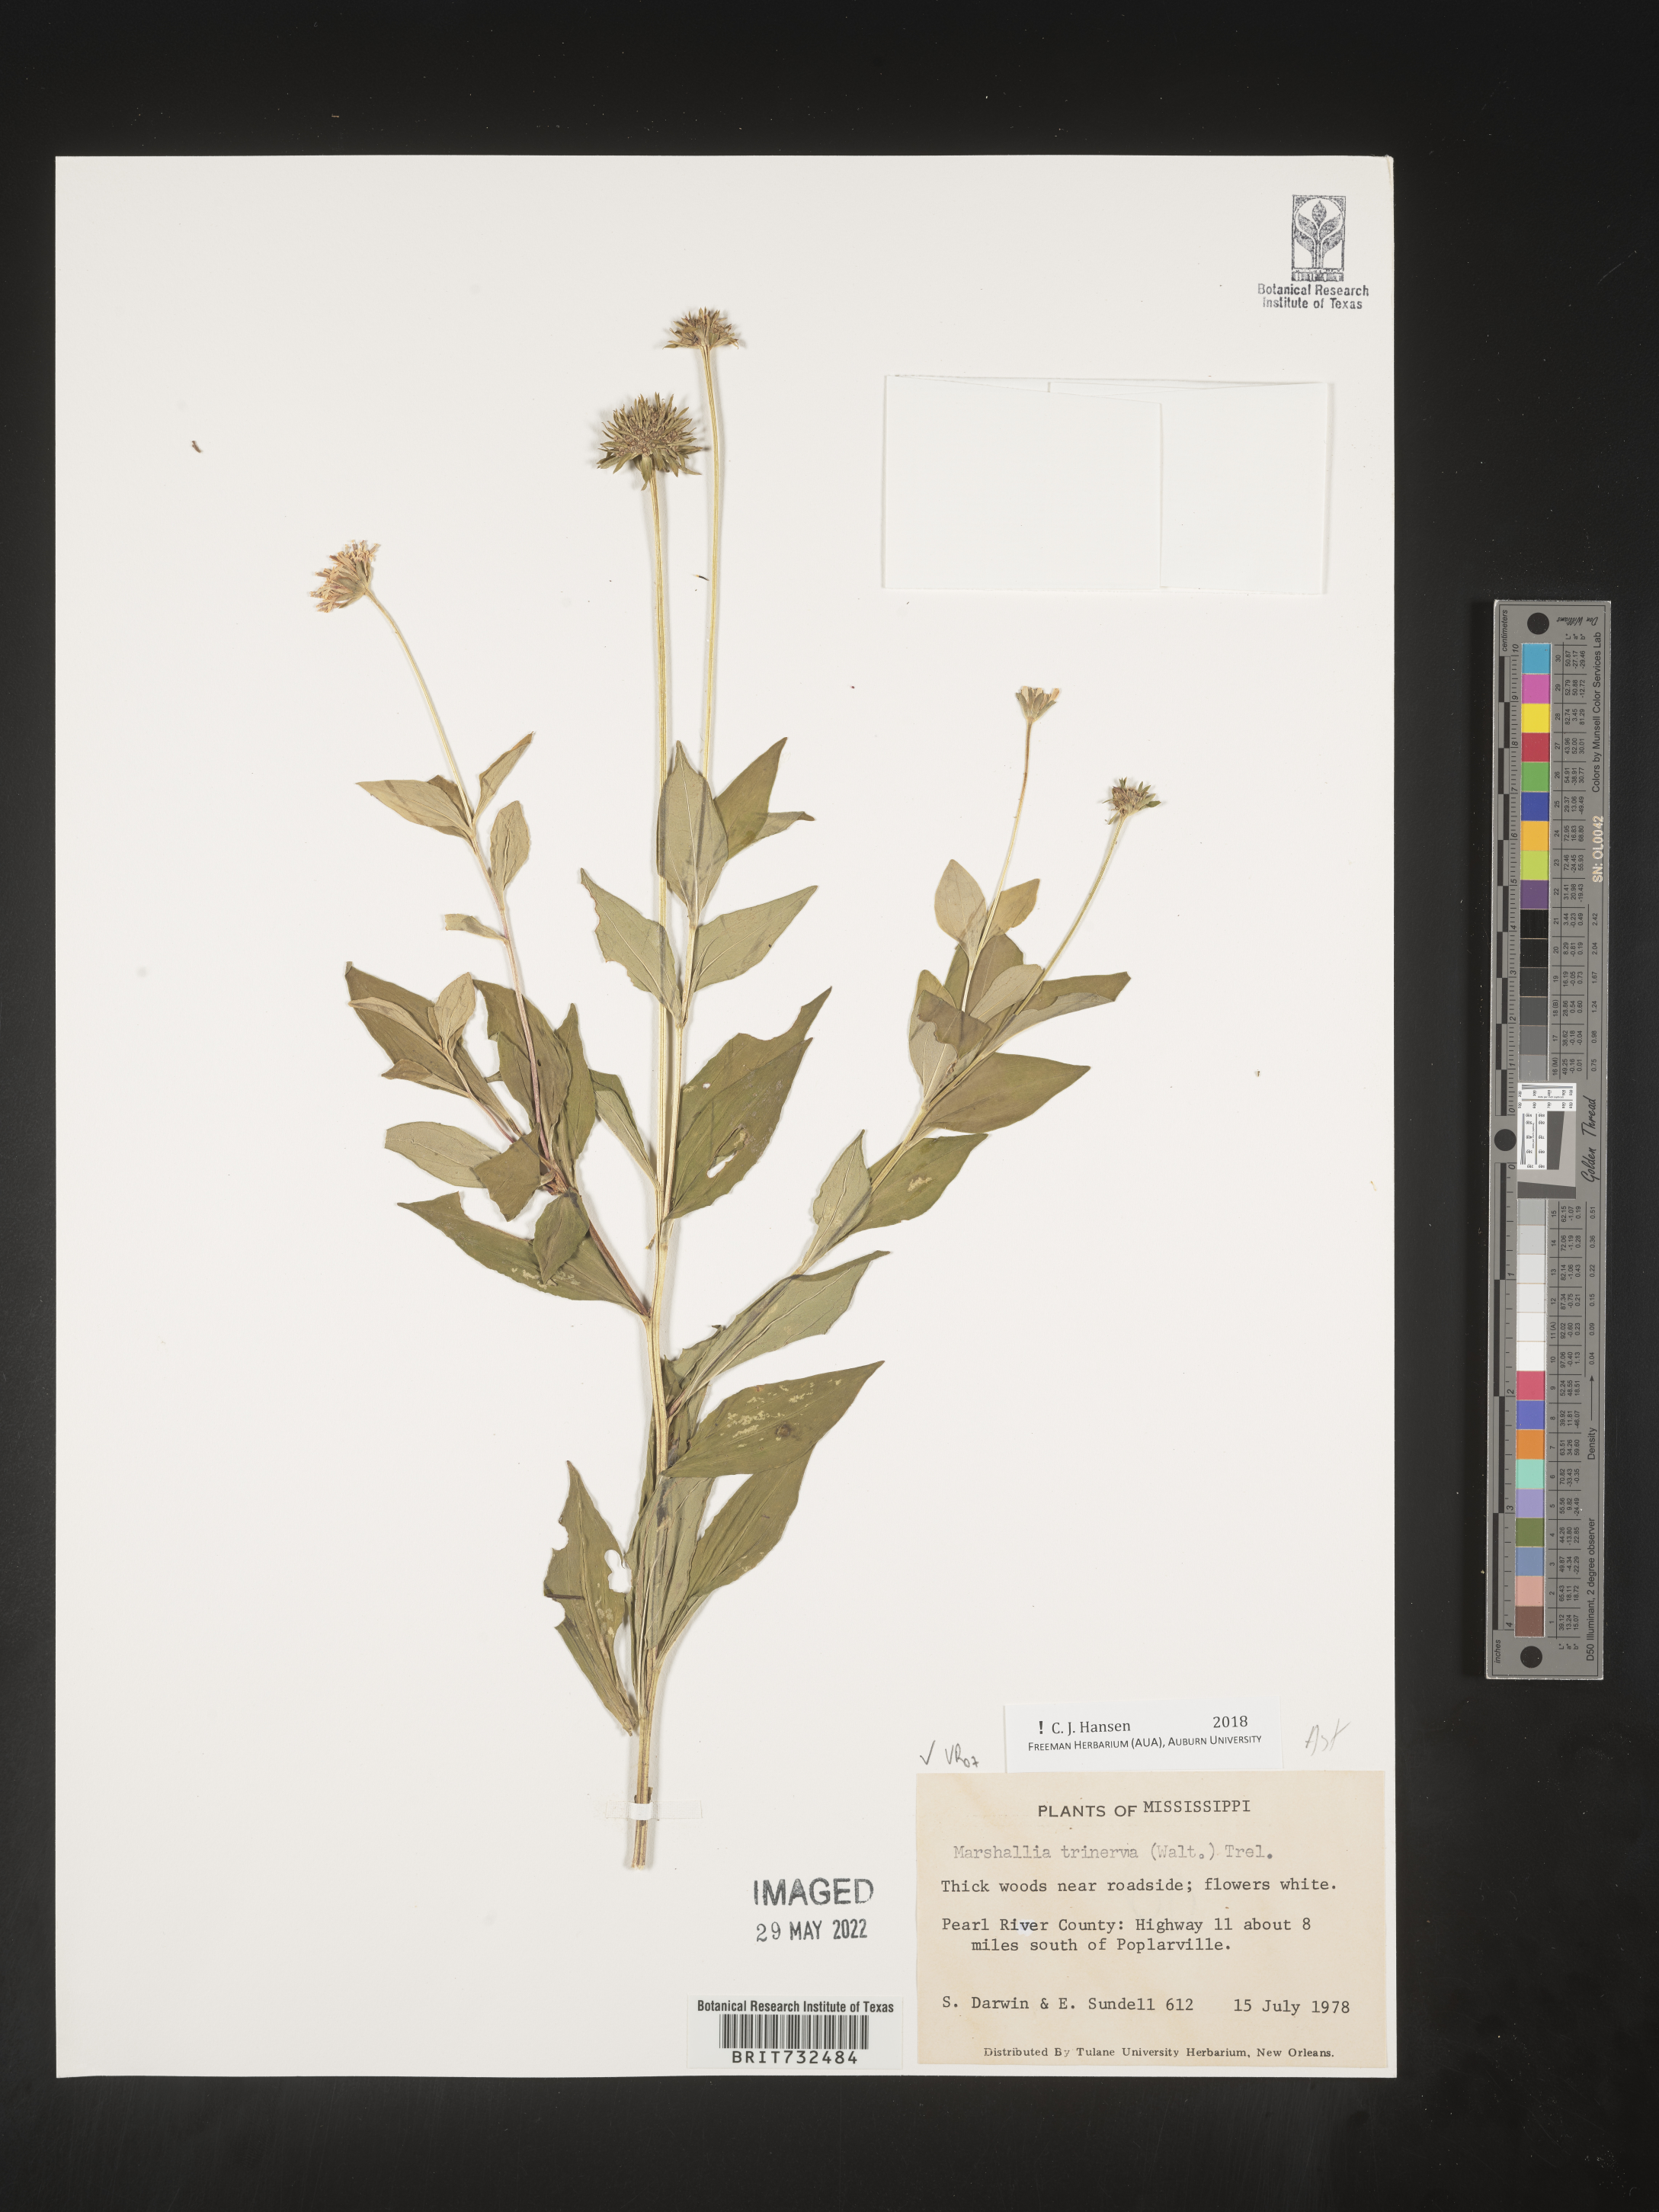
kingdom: Plantae
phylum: Tracheophyta
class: Magnoliopsida
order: Asterales
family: Asteraceae
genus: Marshallia
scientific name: Marshallia trinervia
